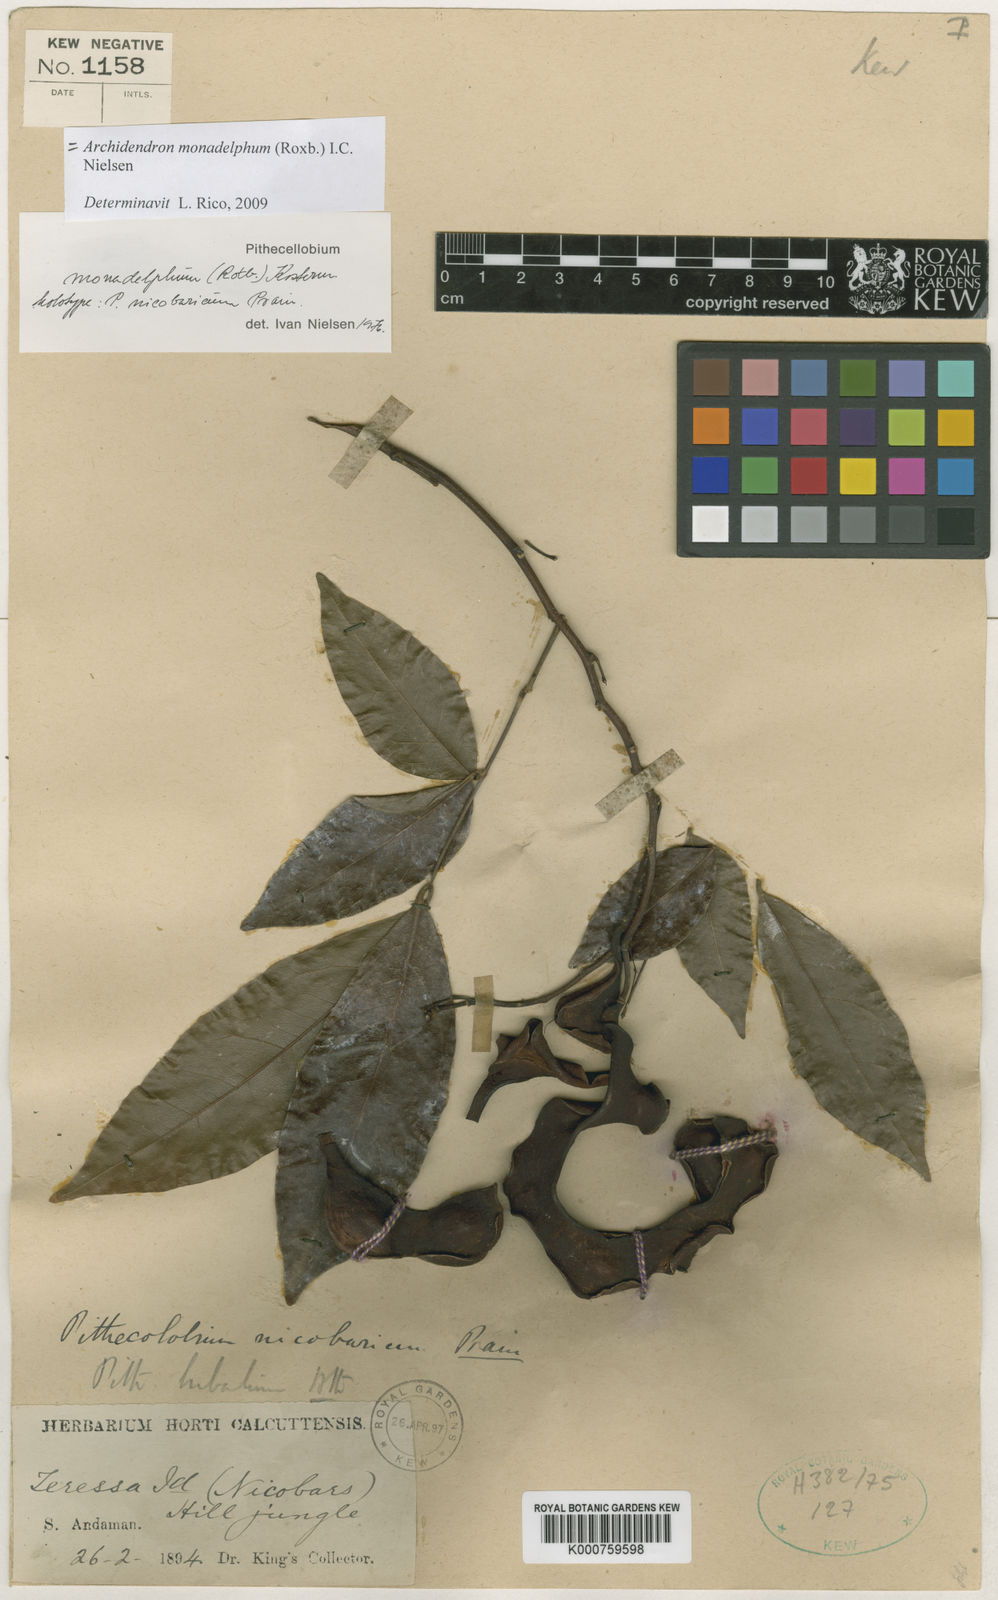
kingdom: Plantae
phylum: Tracheophyta
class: Magnoliopsida
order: Fabales
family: Fabaceae
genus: Archidendron
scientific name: Archidendron bigeminum
